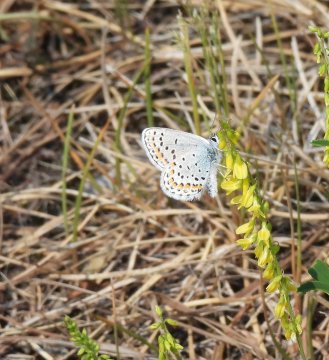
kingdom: Animalia
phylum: Arthropoda
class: Insecta
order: Lepidoptera
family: Lycaenidae
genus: Lycaeides
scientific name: Lycaeides melissa
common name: Melissa Blue
